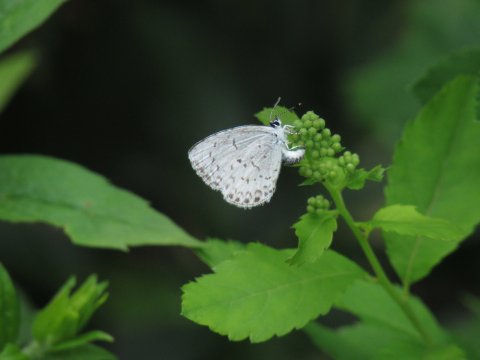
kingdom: Animalia
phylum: Arthropoda
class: Insecta
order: Lepidoptera
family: Lycaenidae
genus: Celastrina
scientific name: Celastrina
